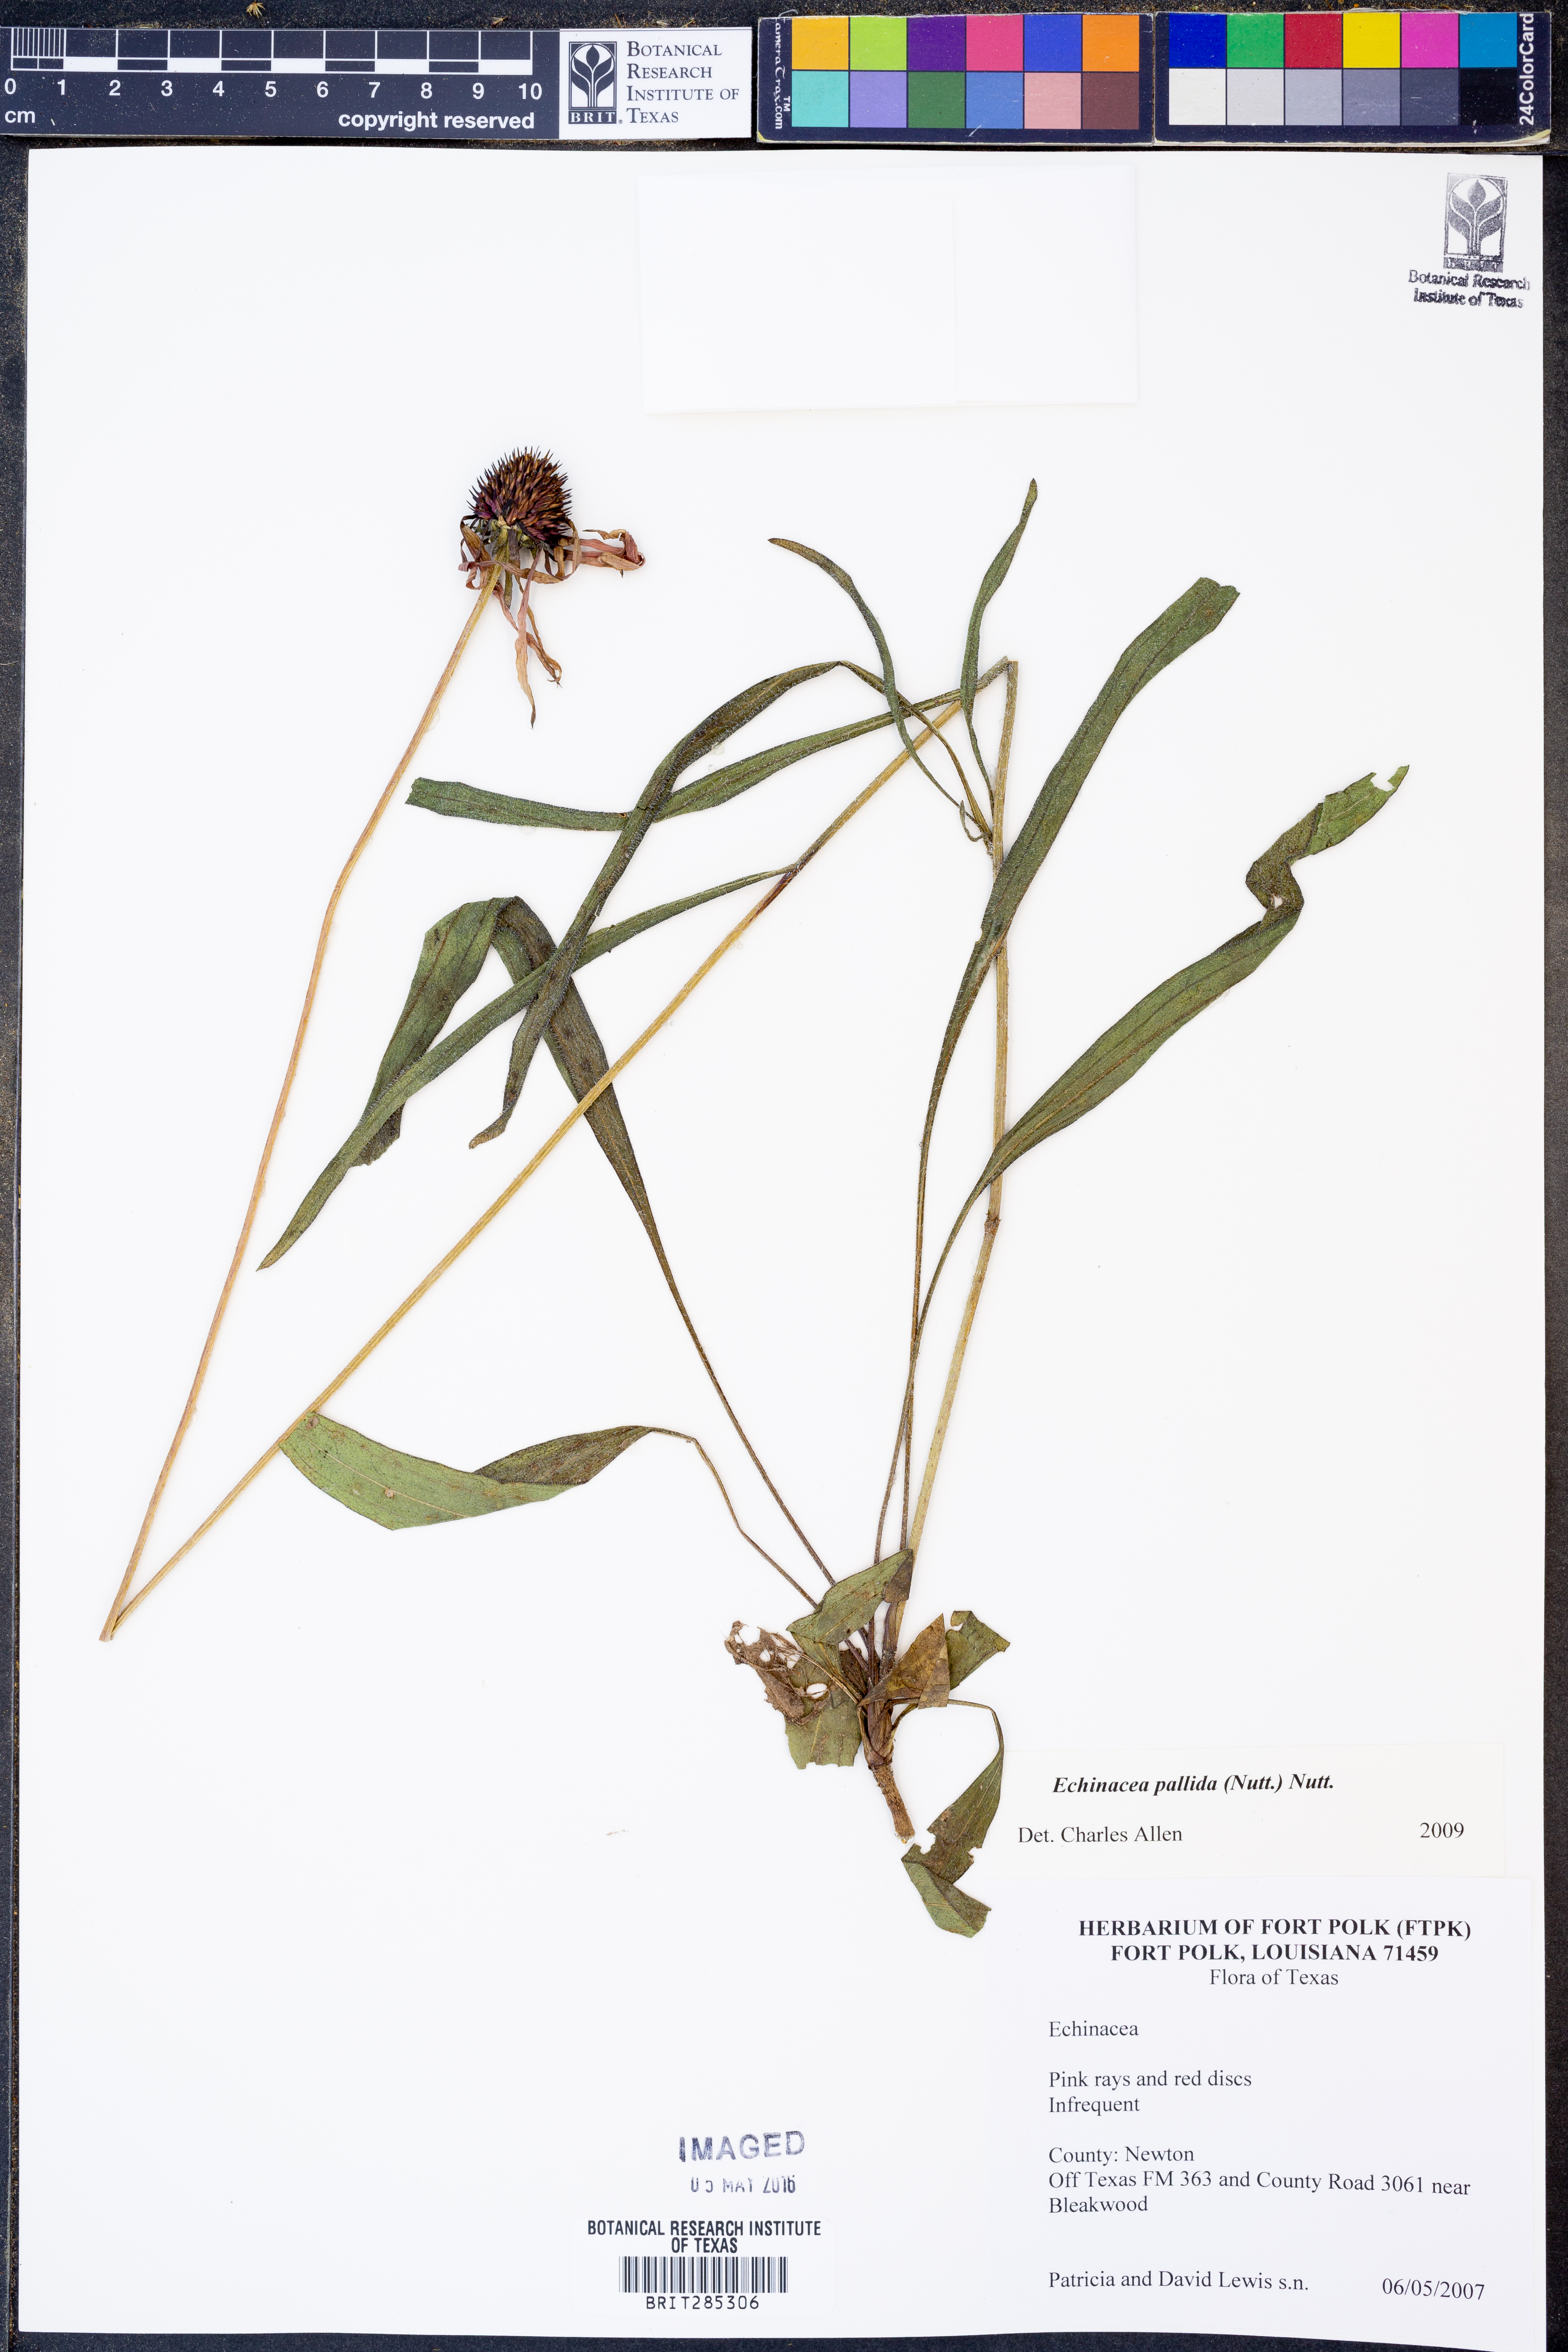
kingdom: Plantae
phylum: Tracheophyta
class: Magnoliopsida
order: Asterales
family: Asteraceae
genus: Echinacea
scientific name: Echinacea pallida
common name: Pale echinacea
